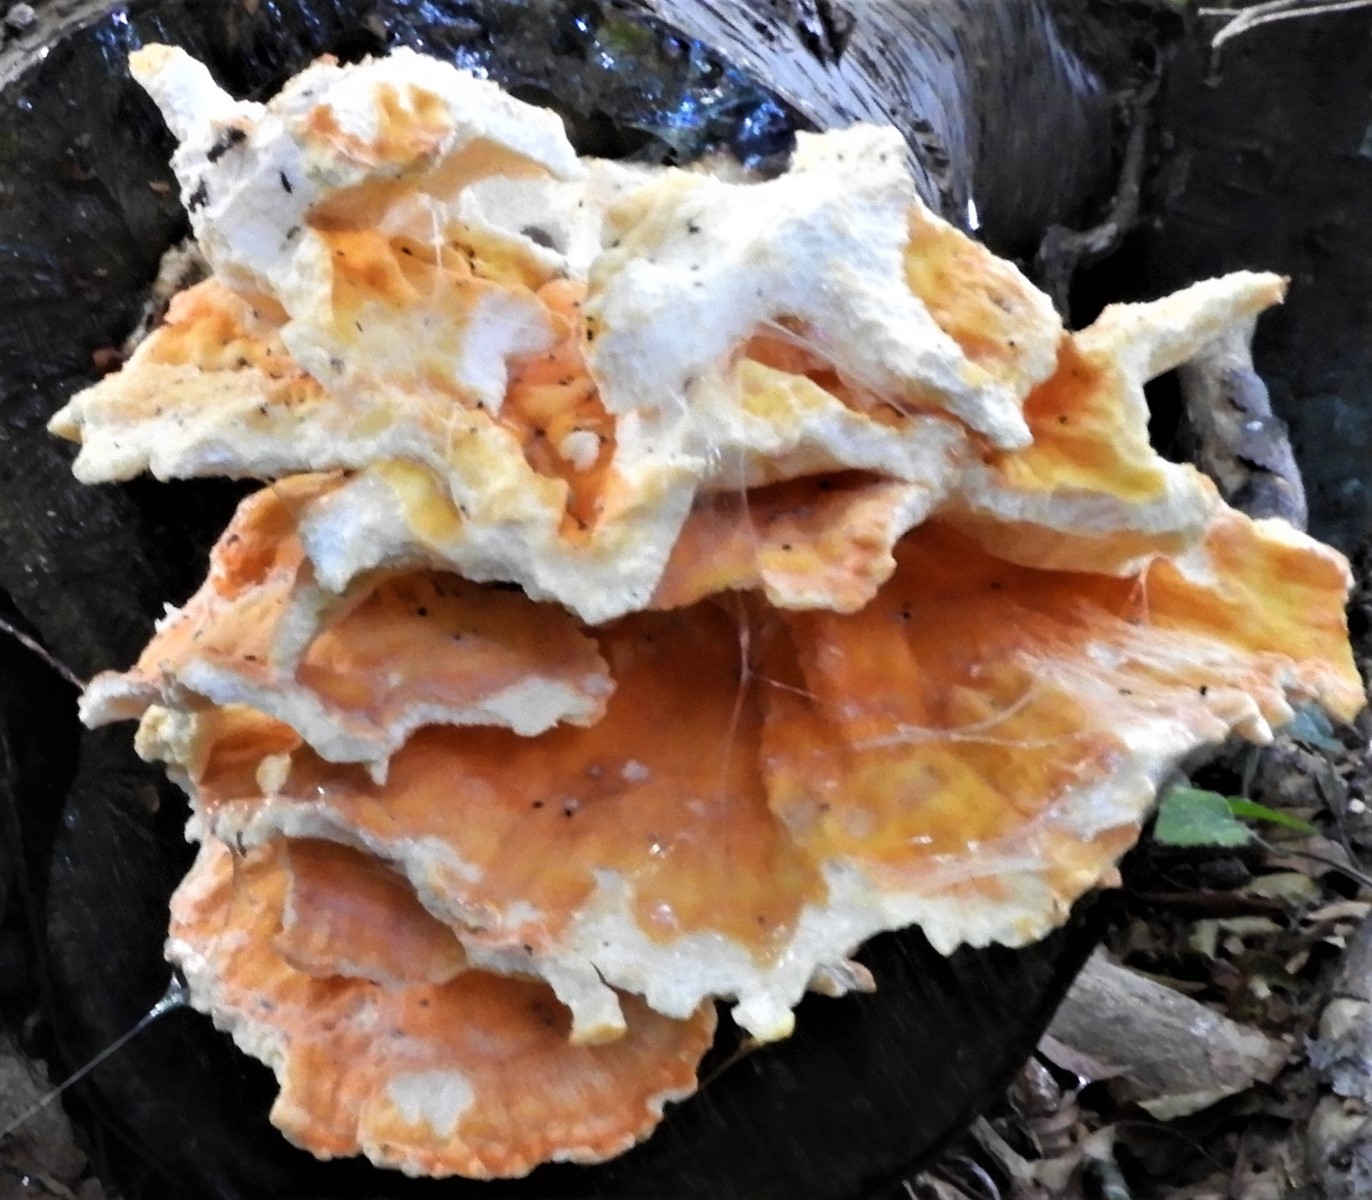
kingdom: Fungi
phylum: Basidiomycota
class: Agaricomycetes
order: Polyporales
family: Laetiporaceae
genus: Laetiporus
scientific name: Laetiporus sulphureus
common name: svovlporesvamp
